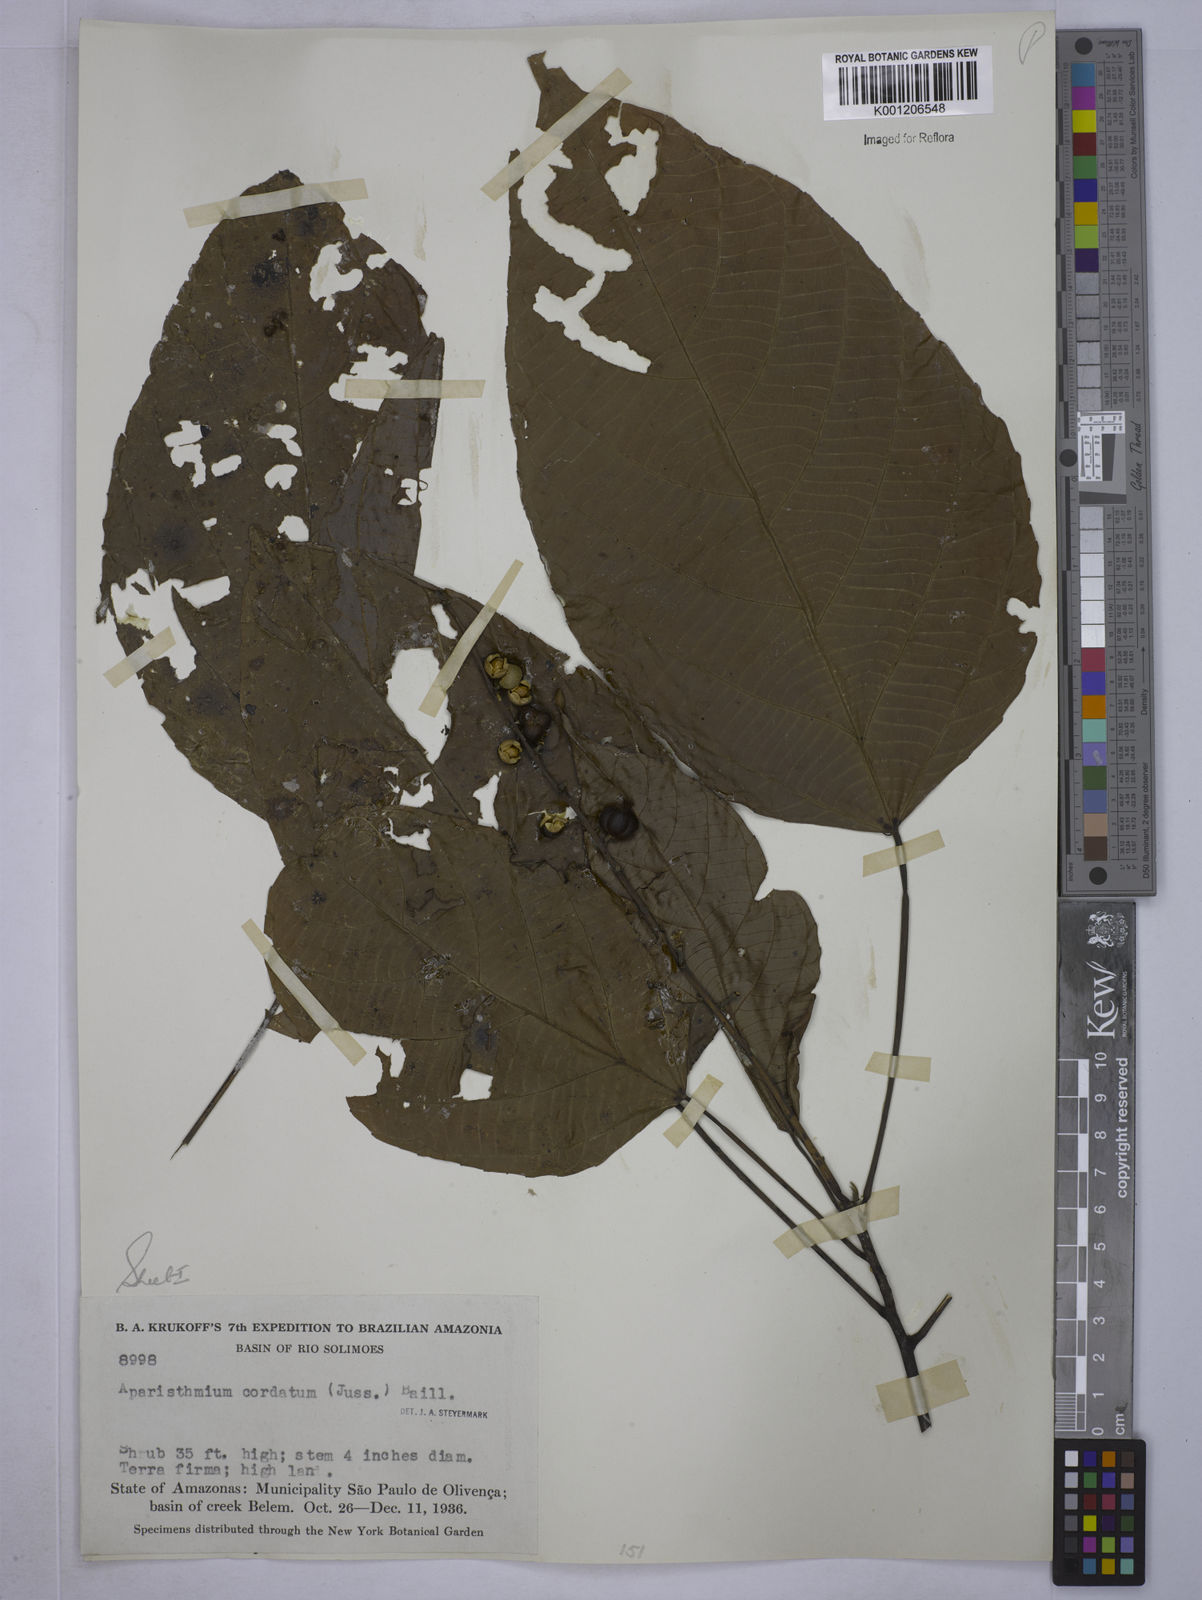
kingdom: Plantae
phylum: Tracheophyta
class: Magnoliopsida
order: Malpighiales
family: Euphorbiaceae
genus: Aparisthmium
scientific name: Aparisthmium cordatum
